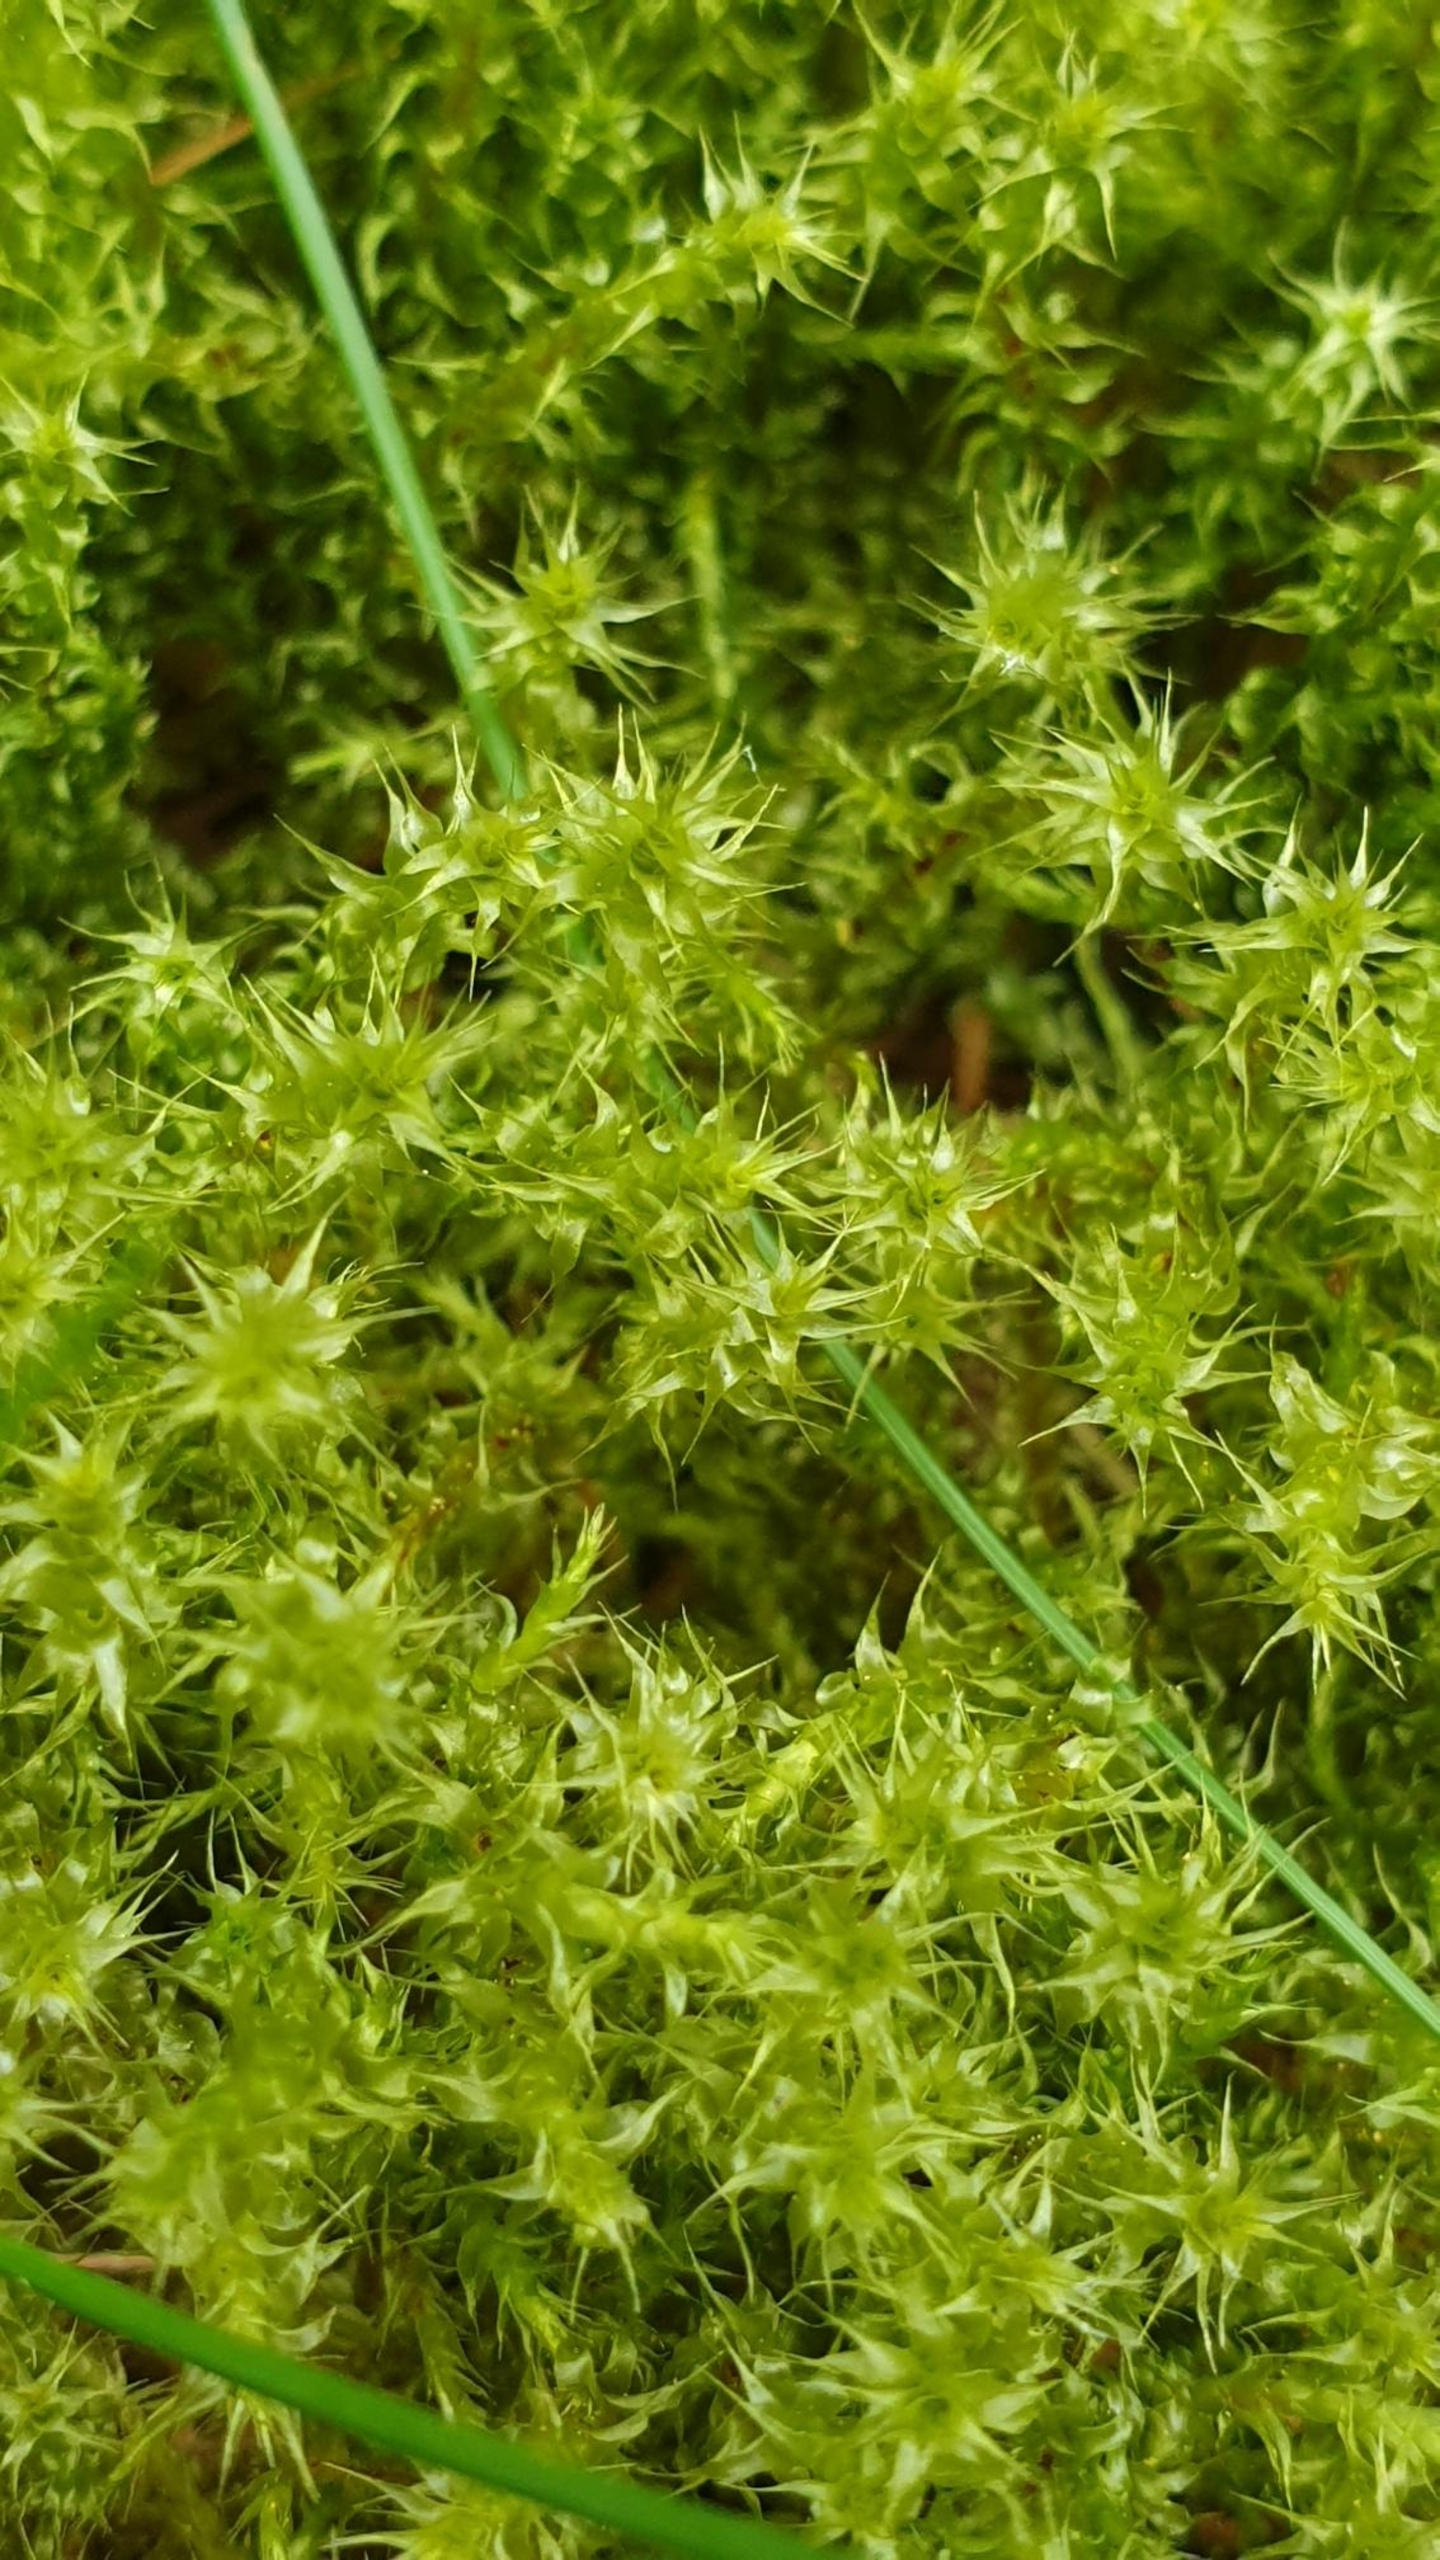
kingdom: Plantae
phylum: Bryophyta
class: Bryopsida
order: Hypnales
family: Hylocomiaceae
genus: Rhytidiadelphus
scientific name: Rhytidiadelphus squarrosus
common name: Plæne-kransemos
